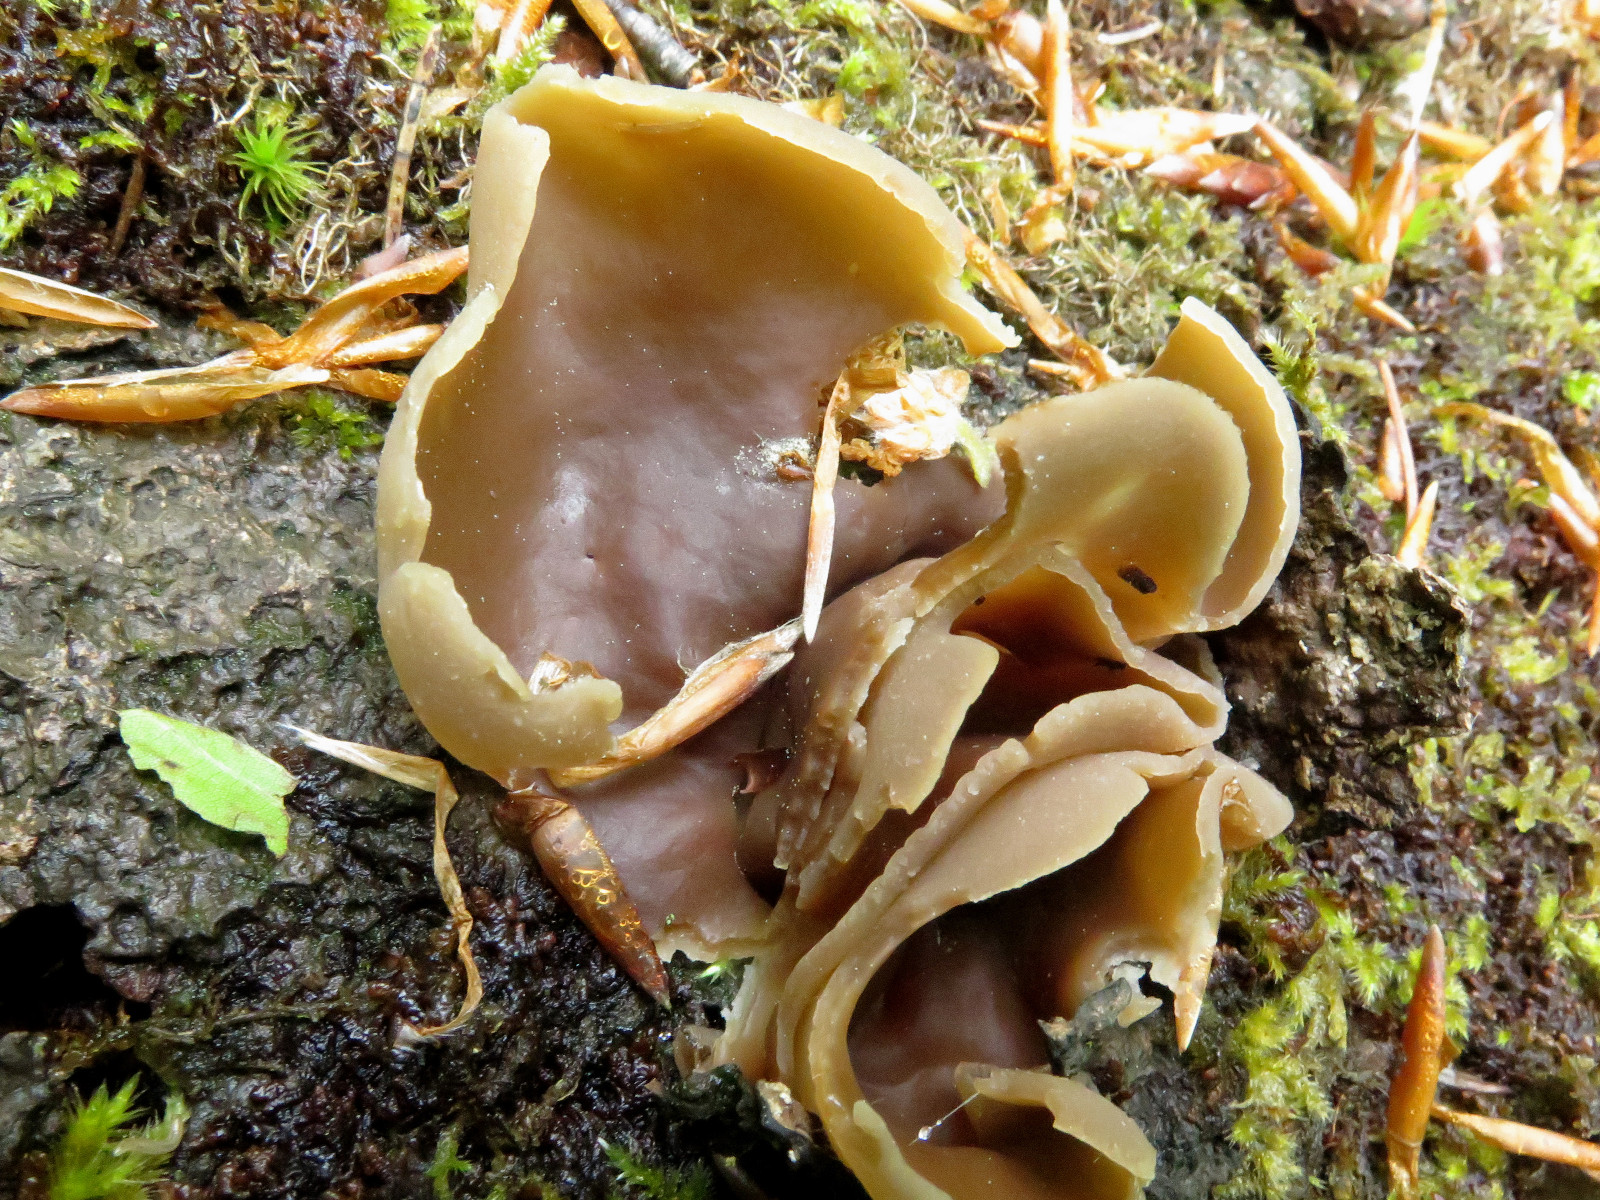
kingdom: Fungi
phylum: Ascomycota
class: Pezizomycetes
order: Pezizales
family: Pezizaceae
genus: Peziza
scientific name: Peziza varia
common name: Ved-bægersvamp
